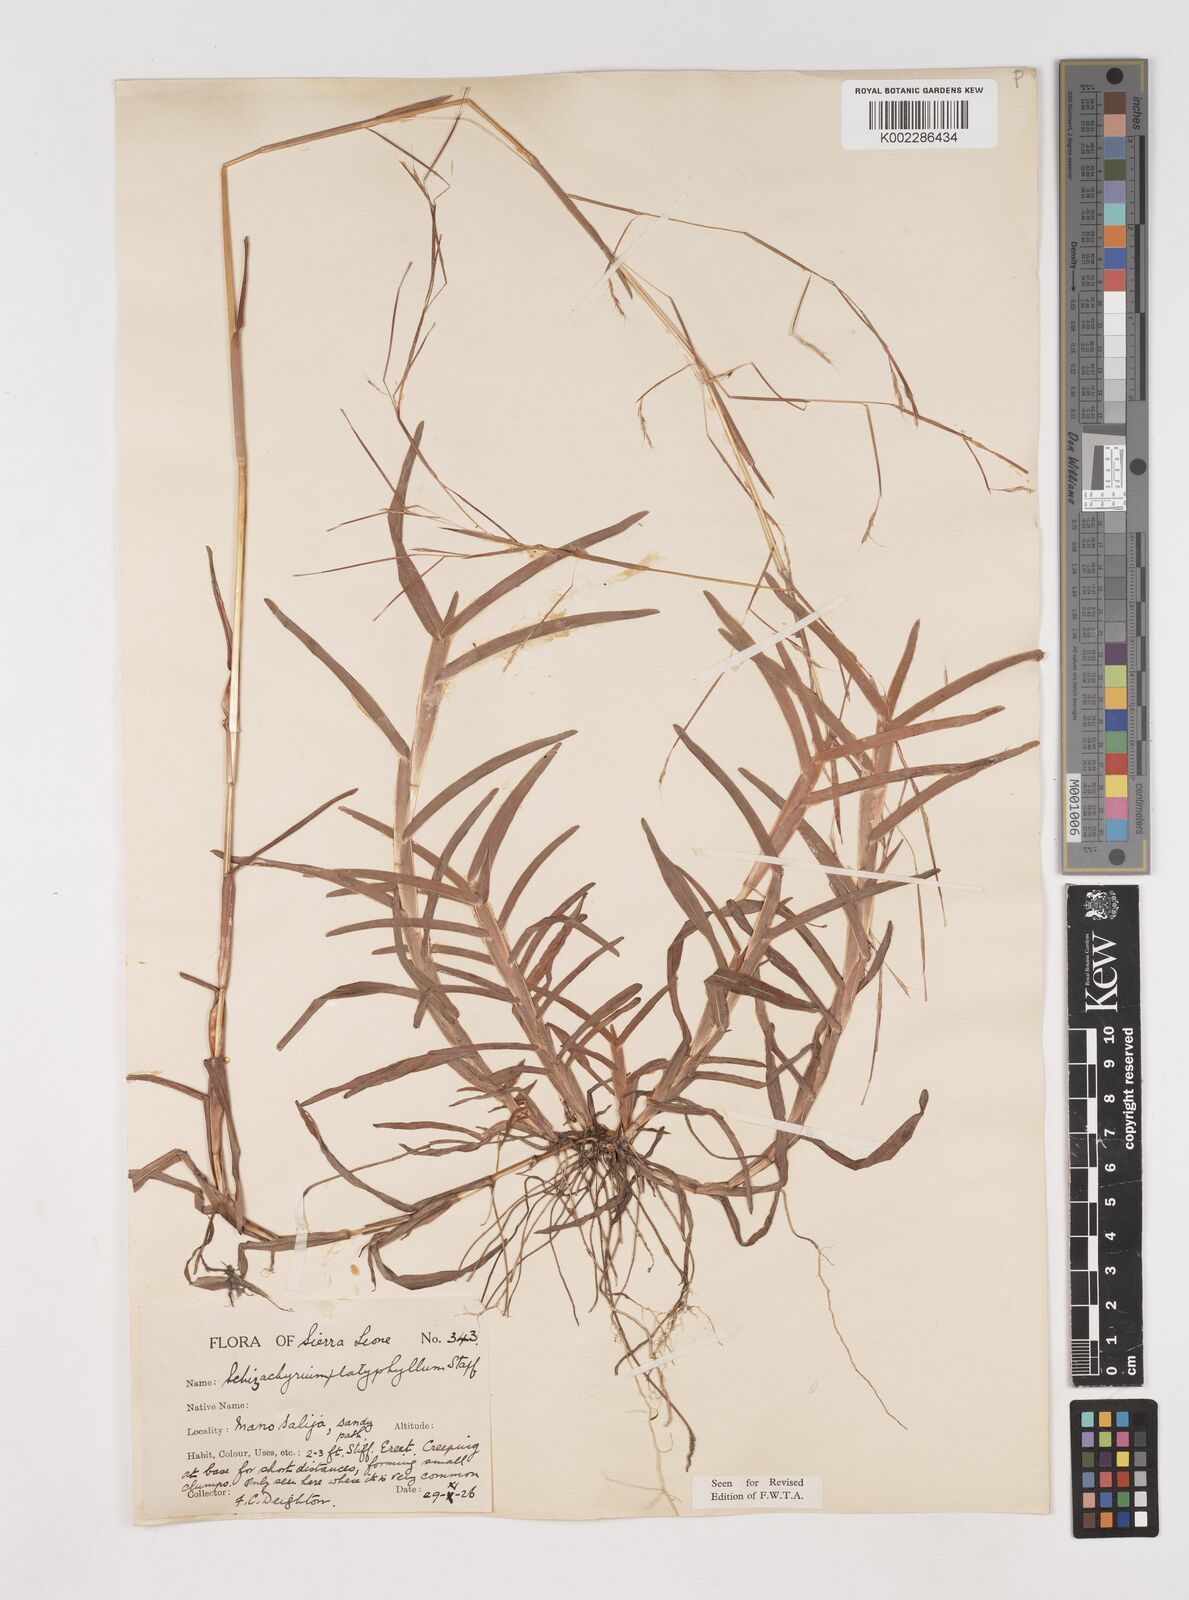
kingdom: Plantae
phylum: Tracheophyta
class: Liliopsida
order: Poales
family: Poaceae
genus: Schizachyrium
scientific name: Schizachyrium platyphyllum
